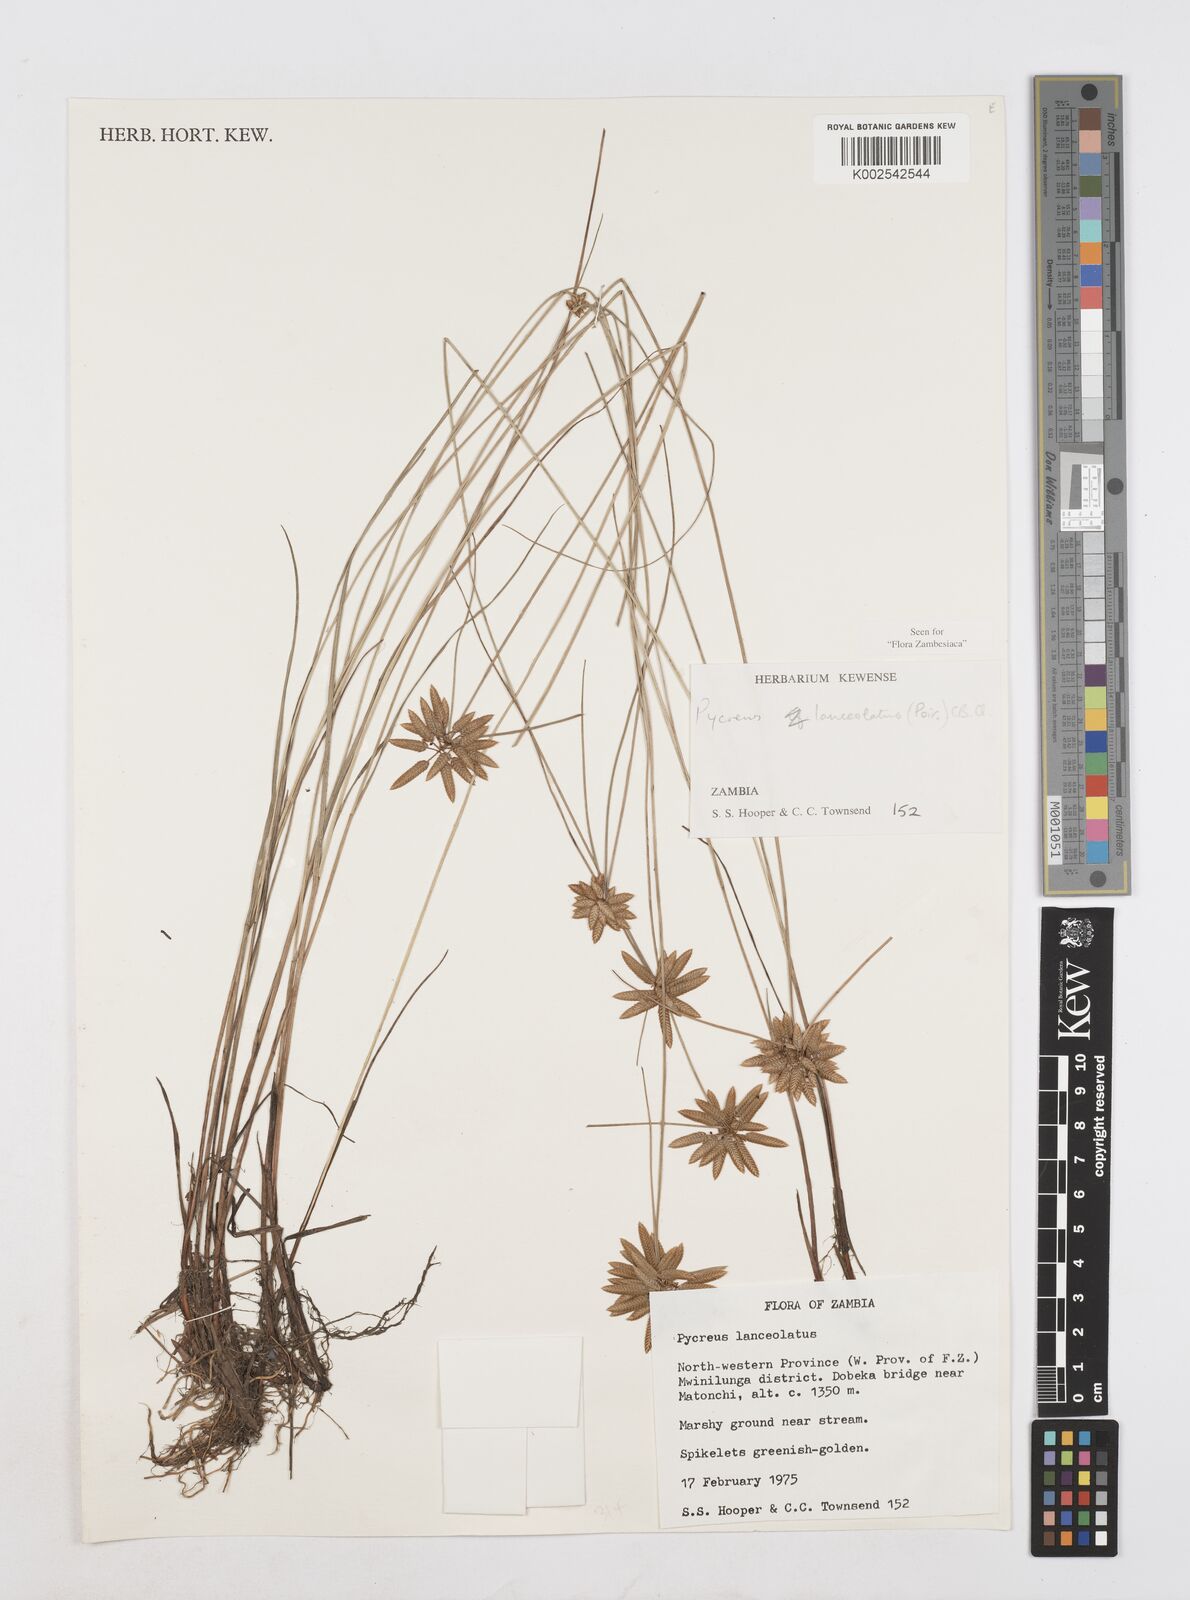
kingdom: Plantae
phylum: Tracheophyta
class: Liliopsida
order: Poales
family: Cyperaceae
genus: Cyperus
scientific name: Cyperus
